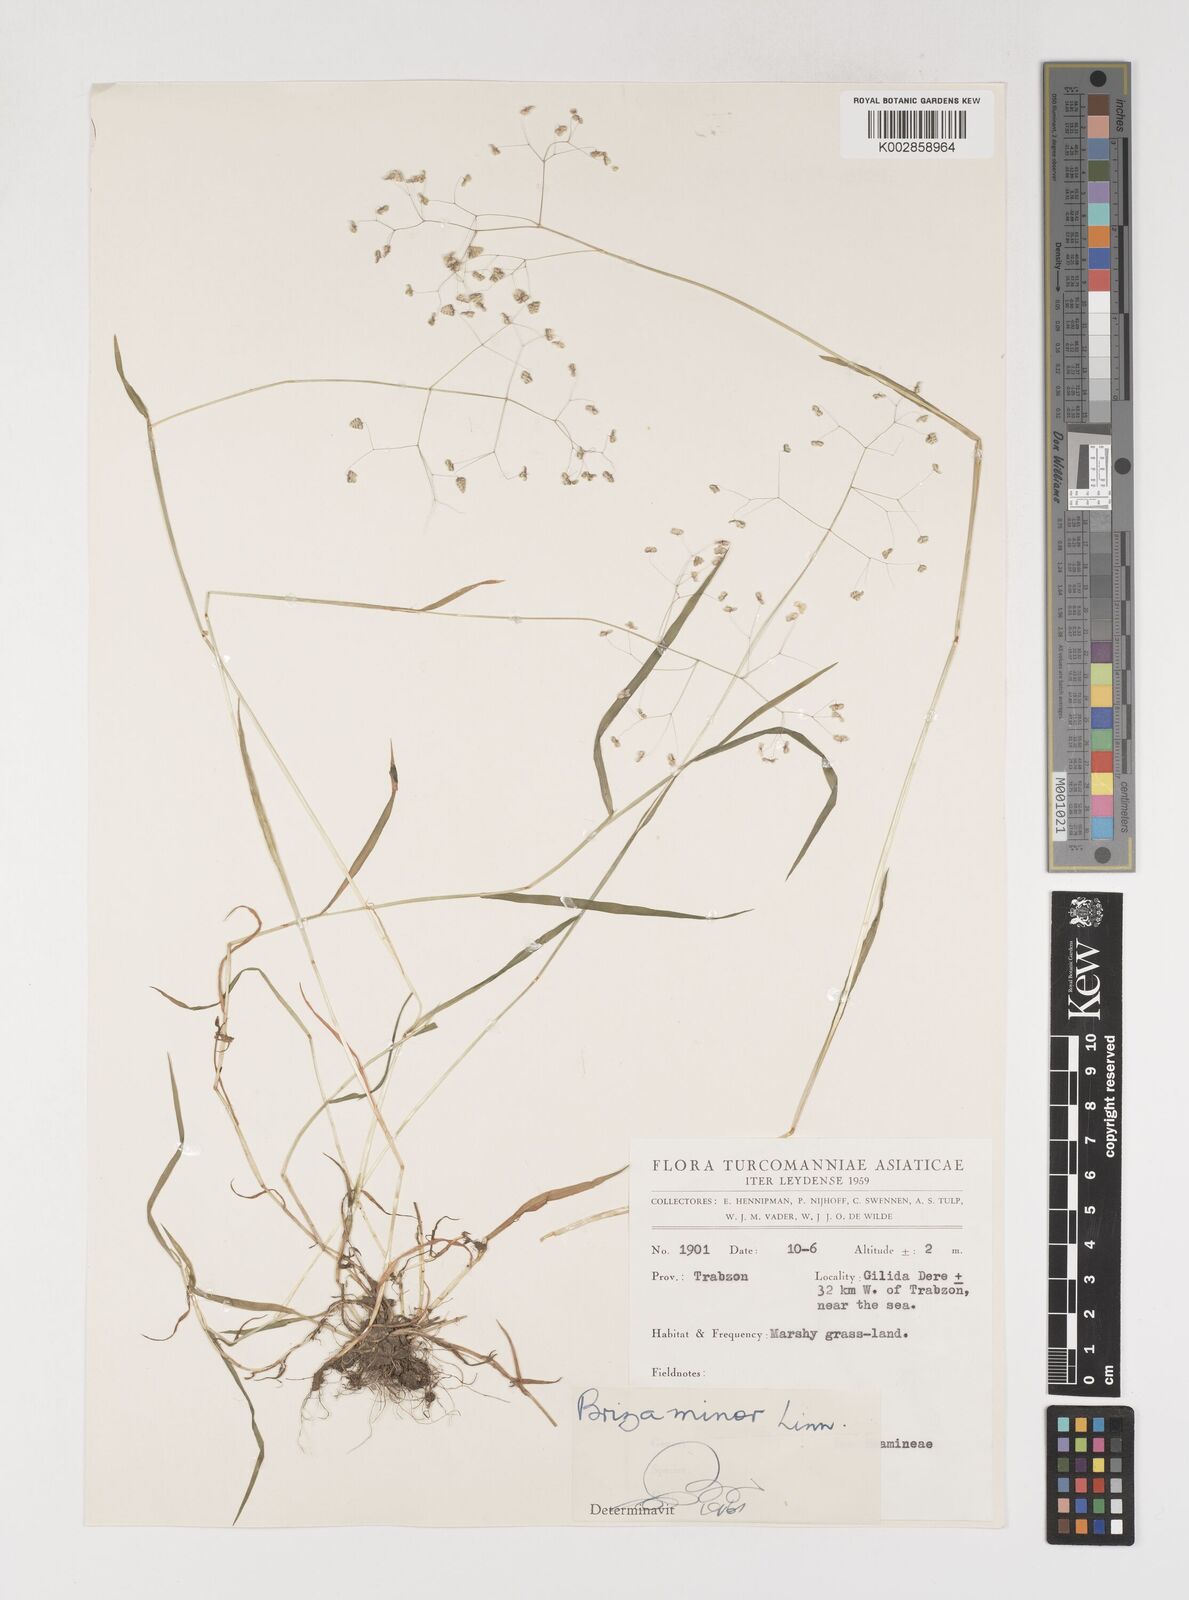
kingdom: Plantae
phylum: Tracheophyta
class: Liliopsida
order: Poales
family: Poaceae
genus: Briza
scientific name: Briza minor
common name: Lesser quaking-grass
